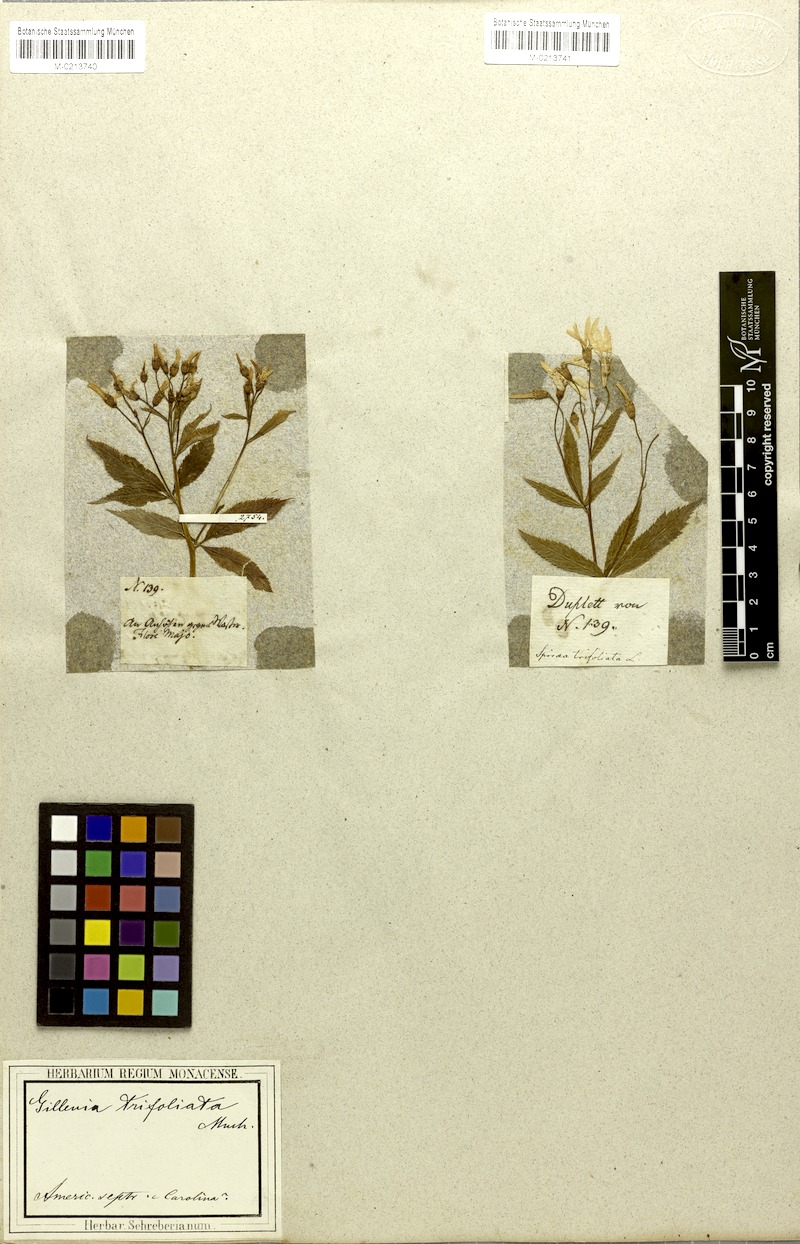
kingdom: Plantae
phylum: Tracheophyta
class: Magnoliopsida
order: Rosales
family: Rosaceae
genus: Gillenia
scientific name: Gillenia trifoliata
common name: Bowman's-root
